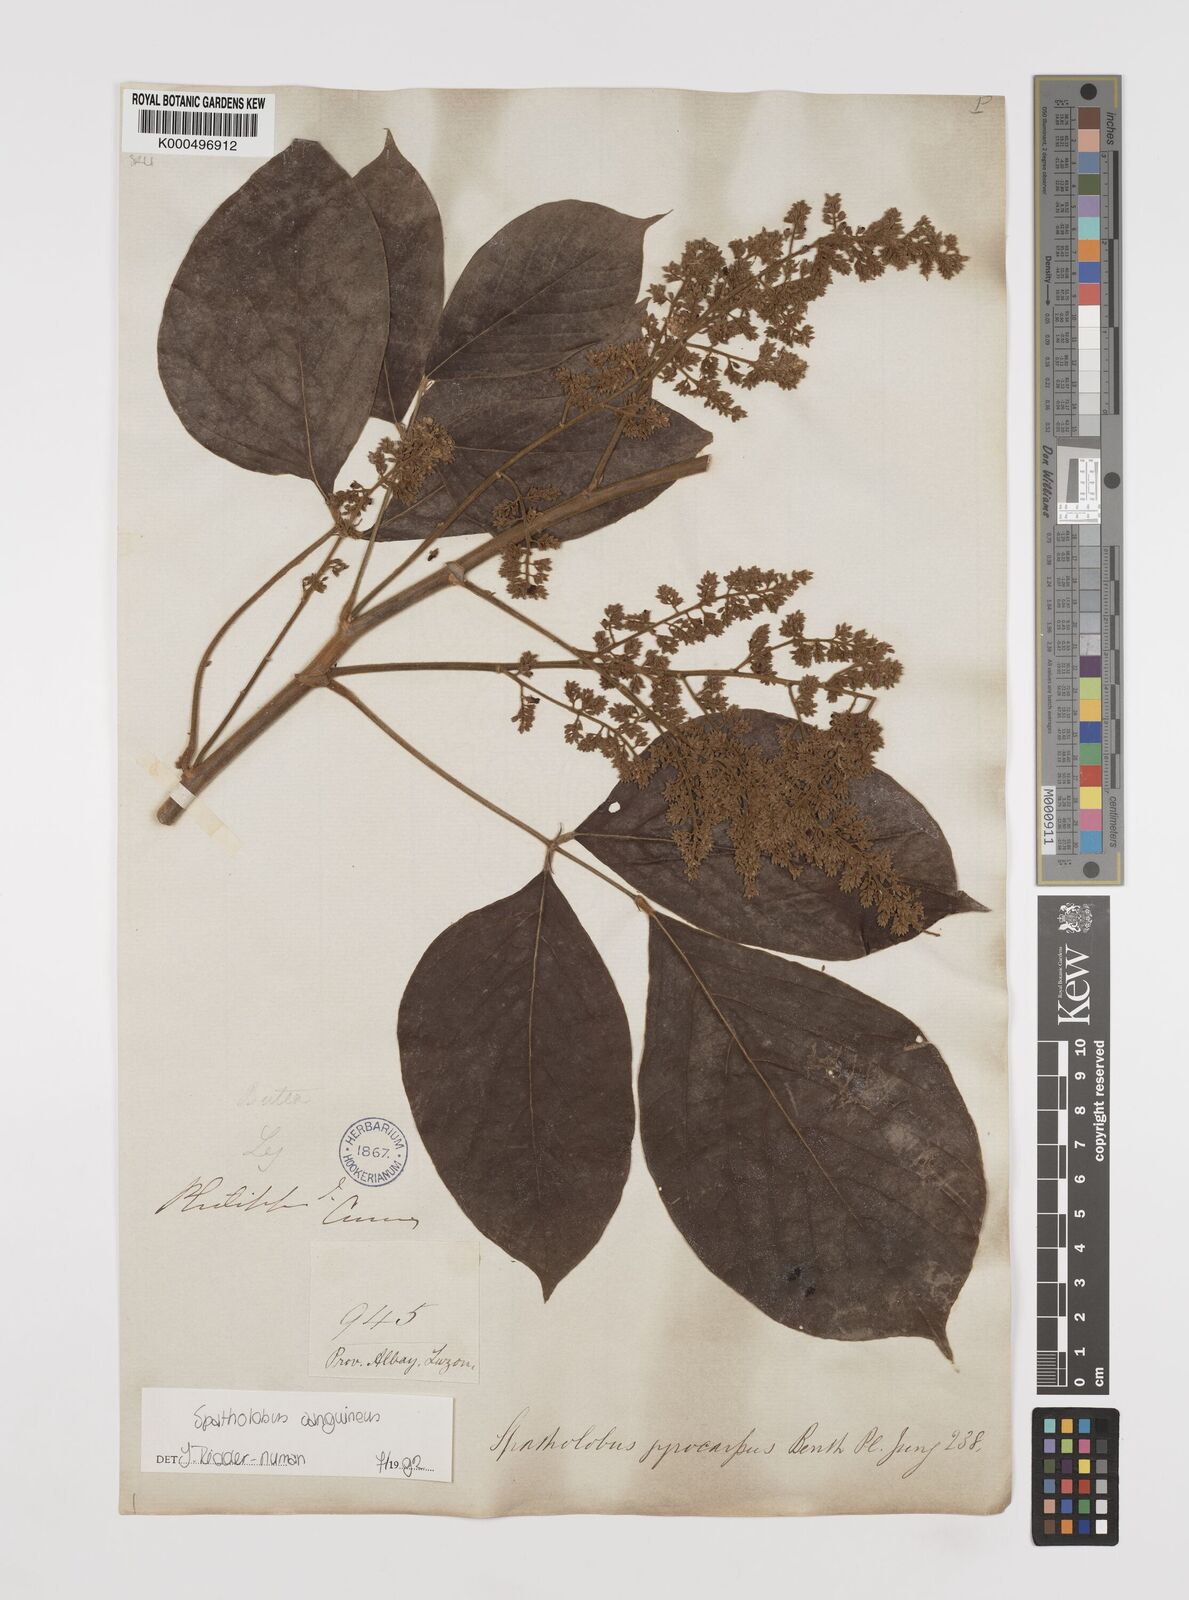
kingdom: Plantae
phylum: Tracheophyta
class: Magnoliopsida
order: Fabales
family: Fabaceae
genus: Spatholobus
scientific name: Spatholobus
